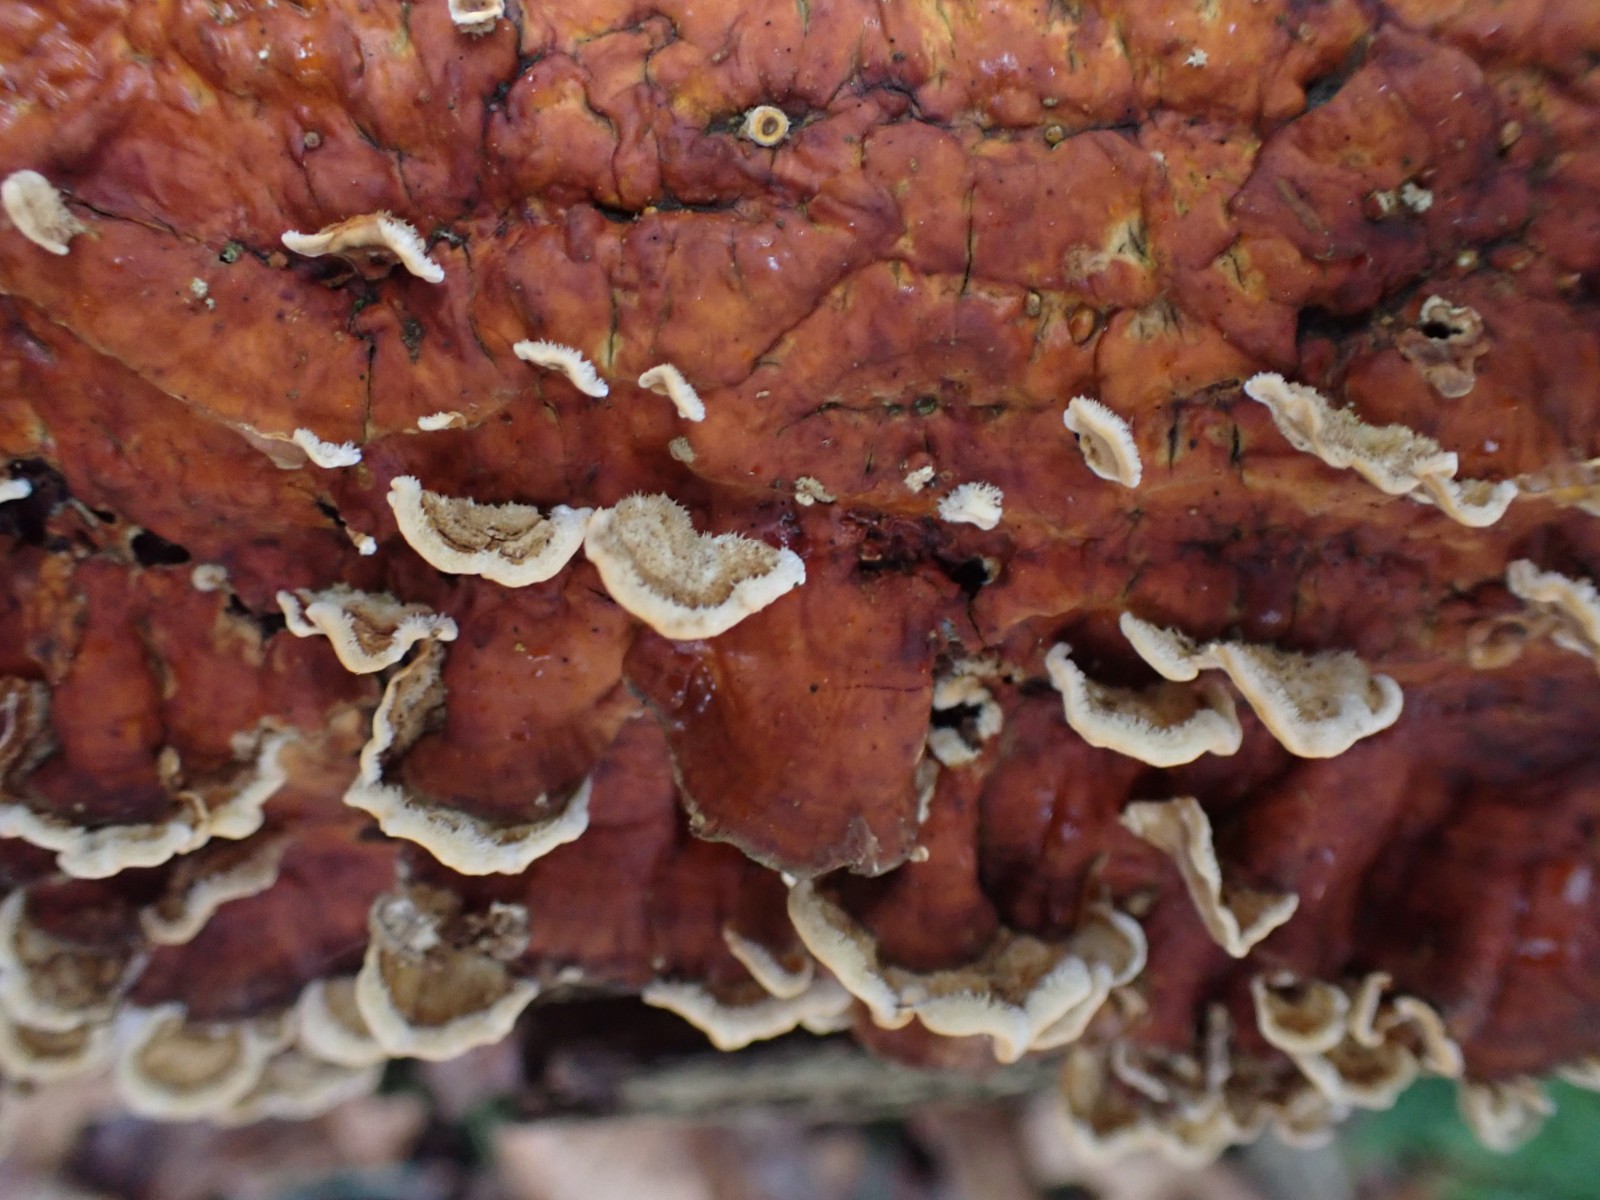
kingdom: Fungi
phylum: Basidiomycota
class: Agaricomycetes
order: Russulales
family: Stereaceae
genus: Stereum
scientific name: Stereum hirsutum
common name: håret lædersvamp
